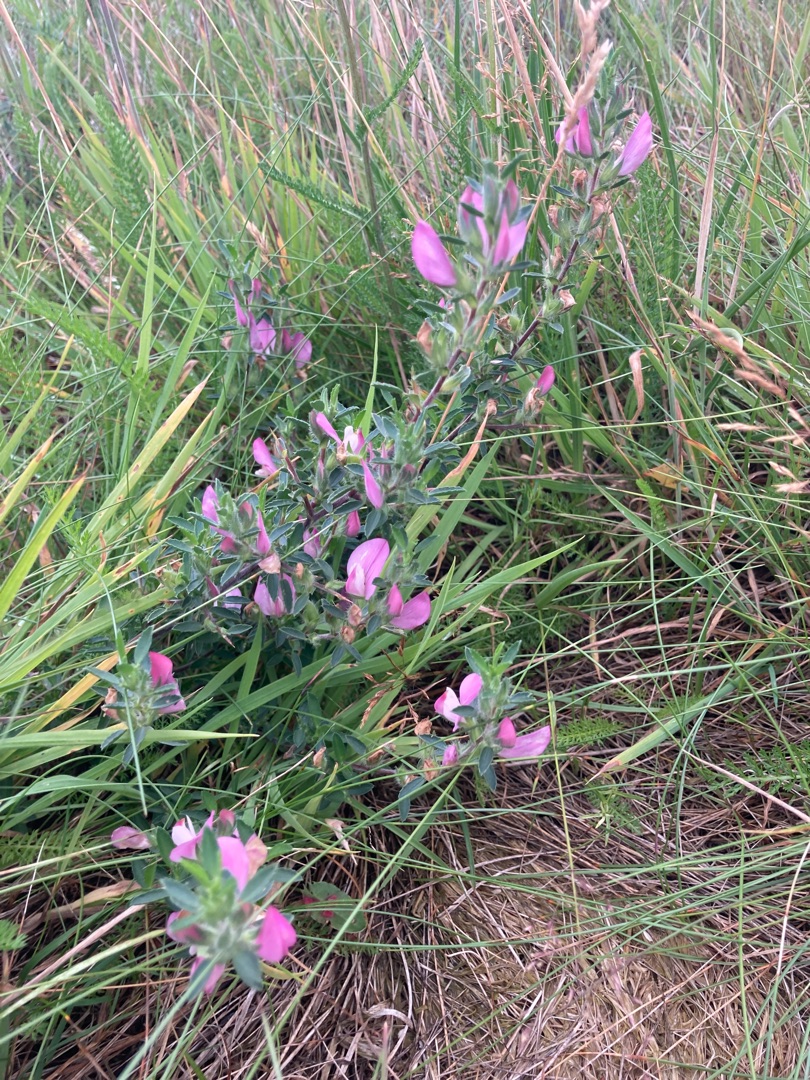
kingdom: Plantae
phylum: Tracheophyta
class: Magnoliopsida
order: Fabales
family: Fabaceae
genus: Ononis
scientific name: Ononis spinosa
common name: Strand-krageklo
